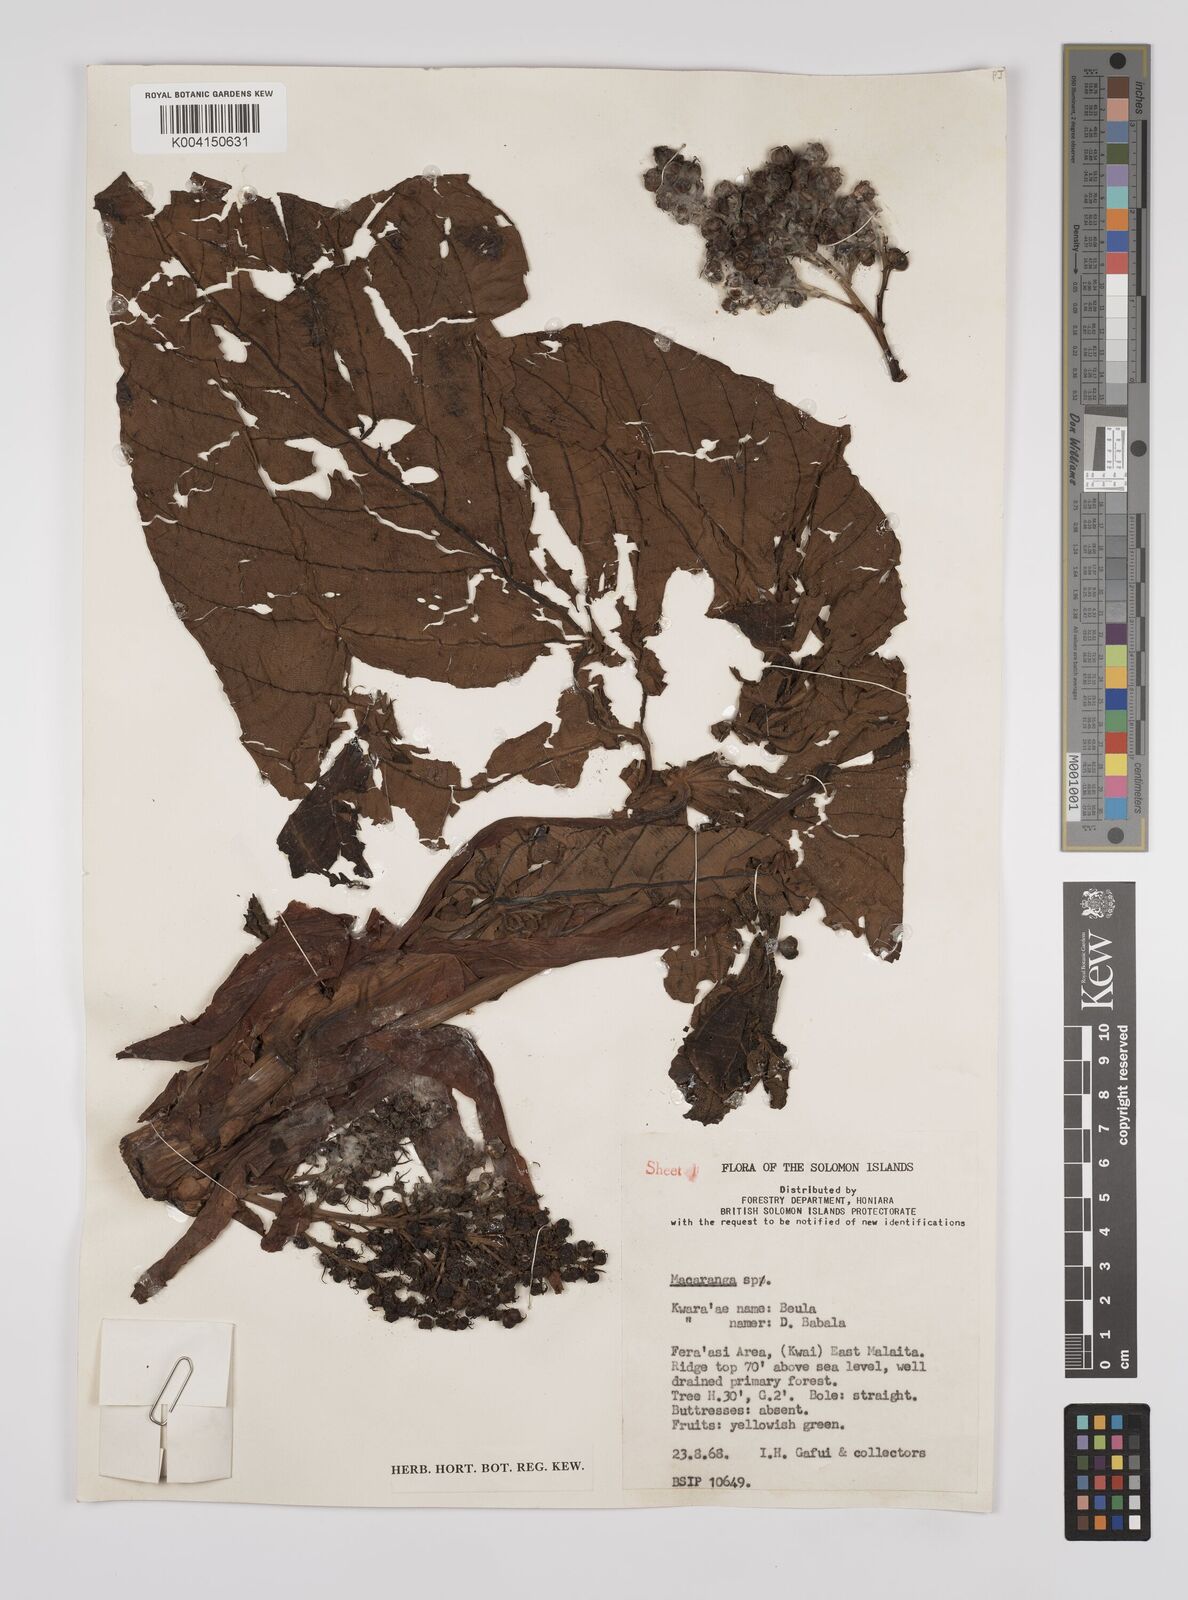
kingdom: Plantae
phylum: Tracheophyta
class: Magnoliopsida
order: Malpighiales
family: Euphorbiaceae
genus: Macaranga
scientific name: Macaranga whitmorei
